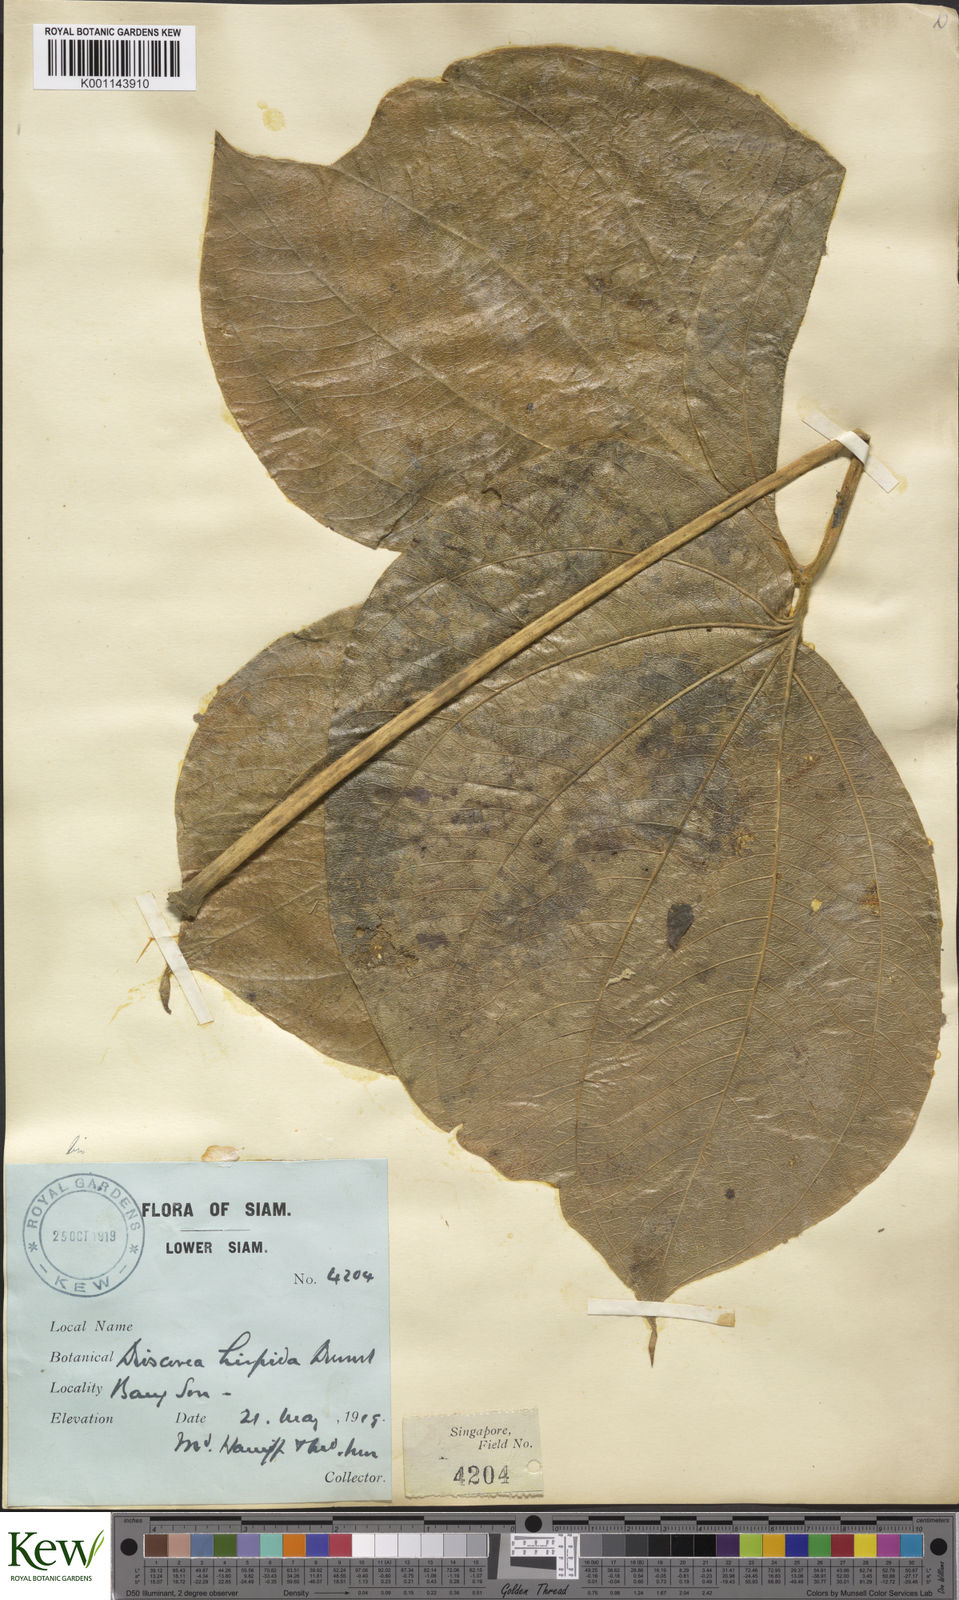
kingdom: Plantae
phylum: Tracheophyta
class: Liliopsida
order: Dioscoreales
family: Dioscoreaceae
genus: Dioscorea
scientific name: Dioscorea hispida
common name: Asiatic bitter yam
